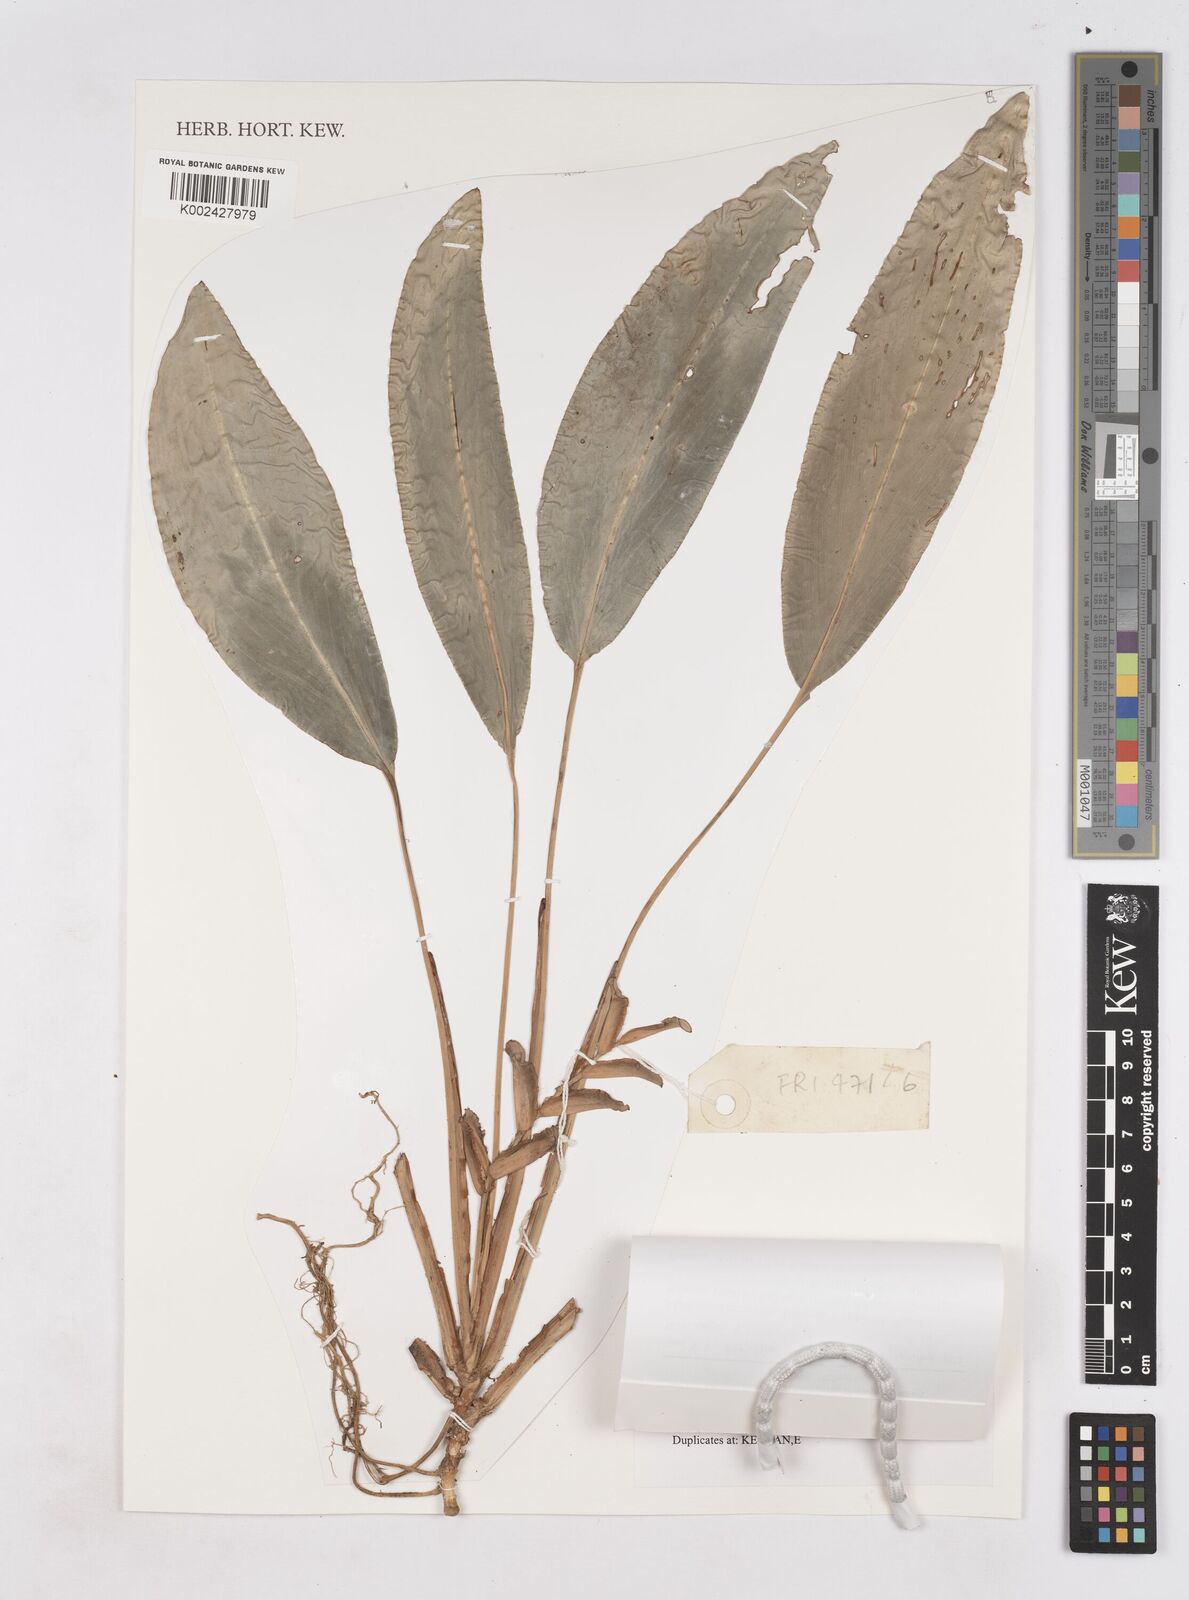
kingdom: Plantae
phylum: Tracheophyta
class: Liliopsida
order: Zingiberales
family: Zingiberaceae
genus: Scaphochlamys
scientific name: Scaphochlamys erecta
